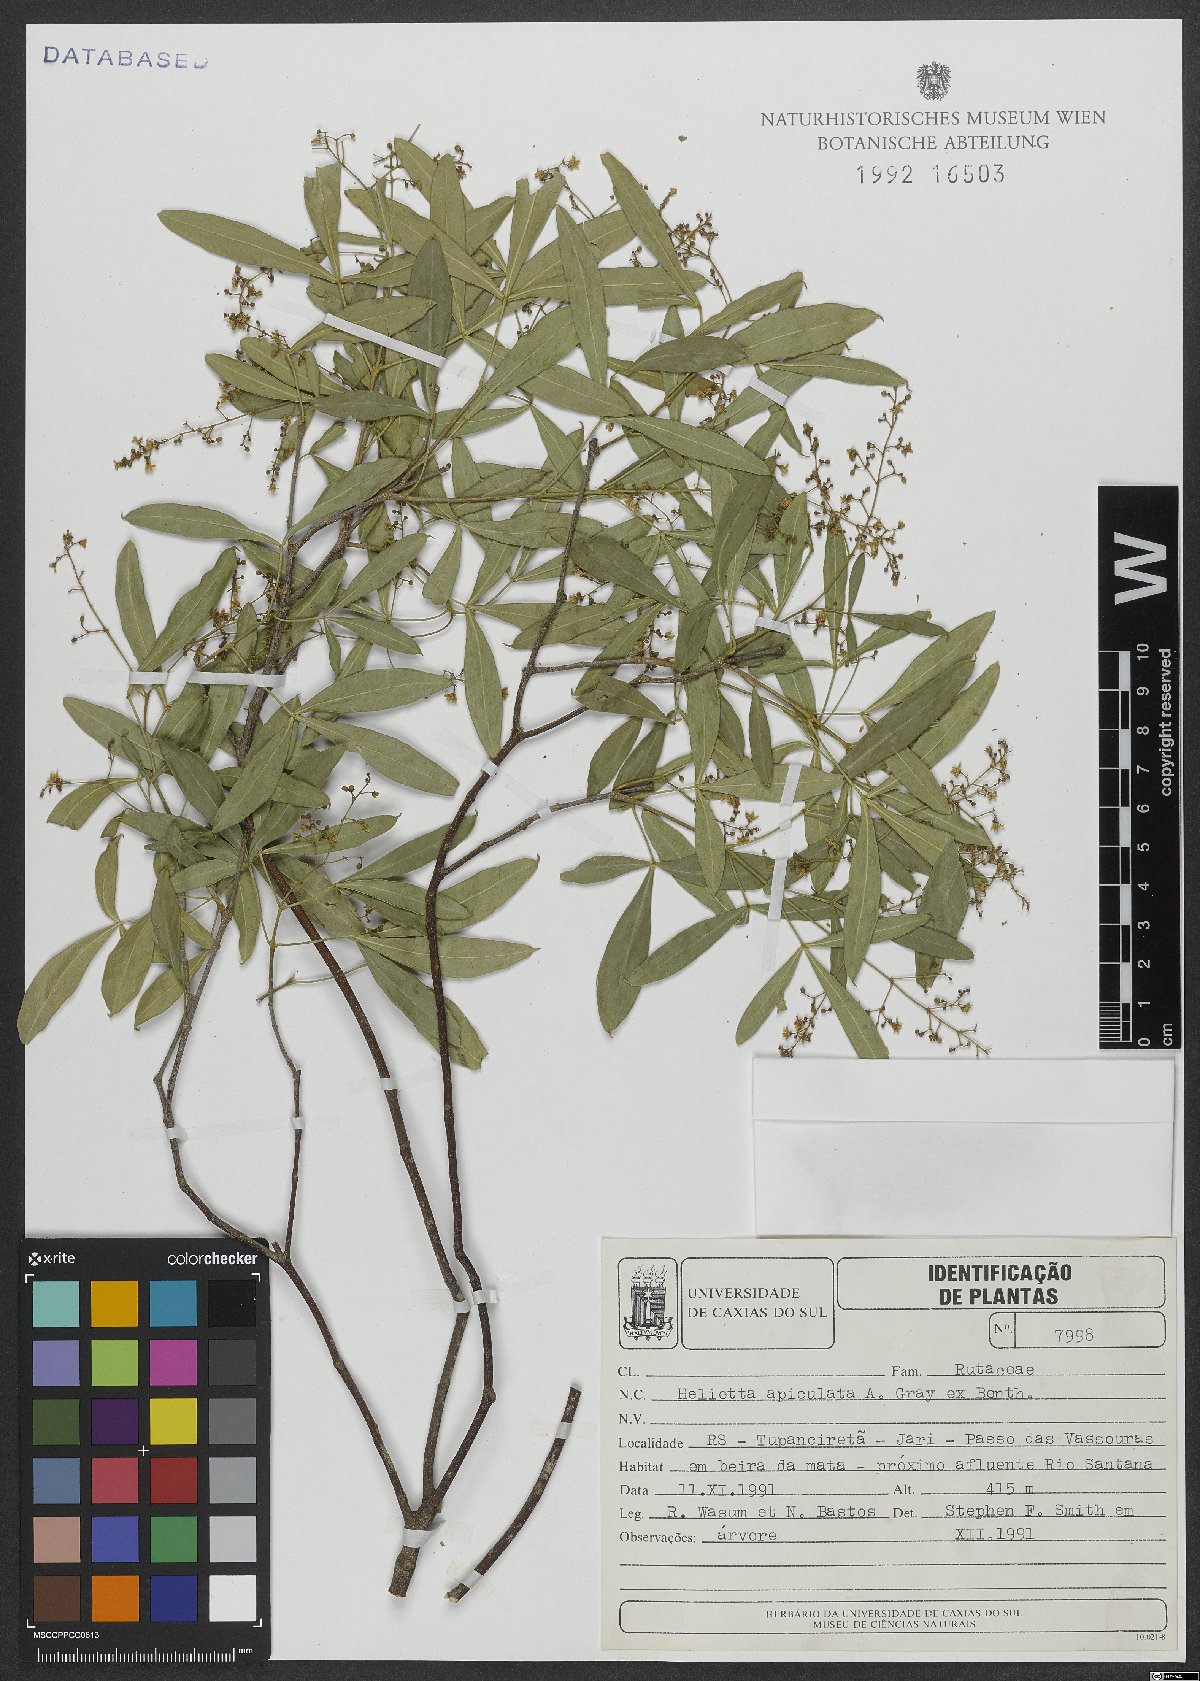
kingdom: Plantae
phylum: Tracheophyta
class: Magnoliopsida
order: Sapindales
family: Rutaceae
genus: Helietta
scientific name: Helietta apiculata
